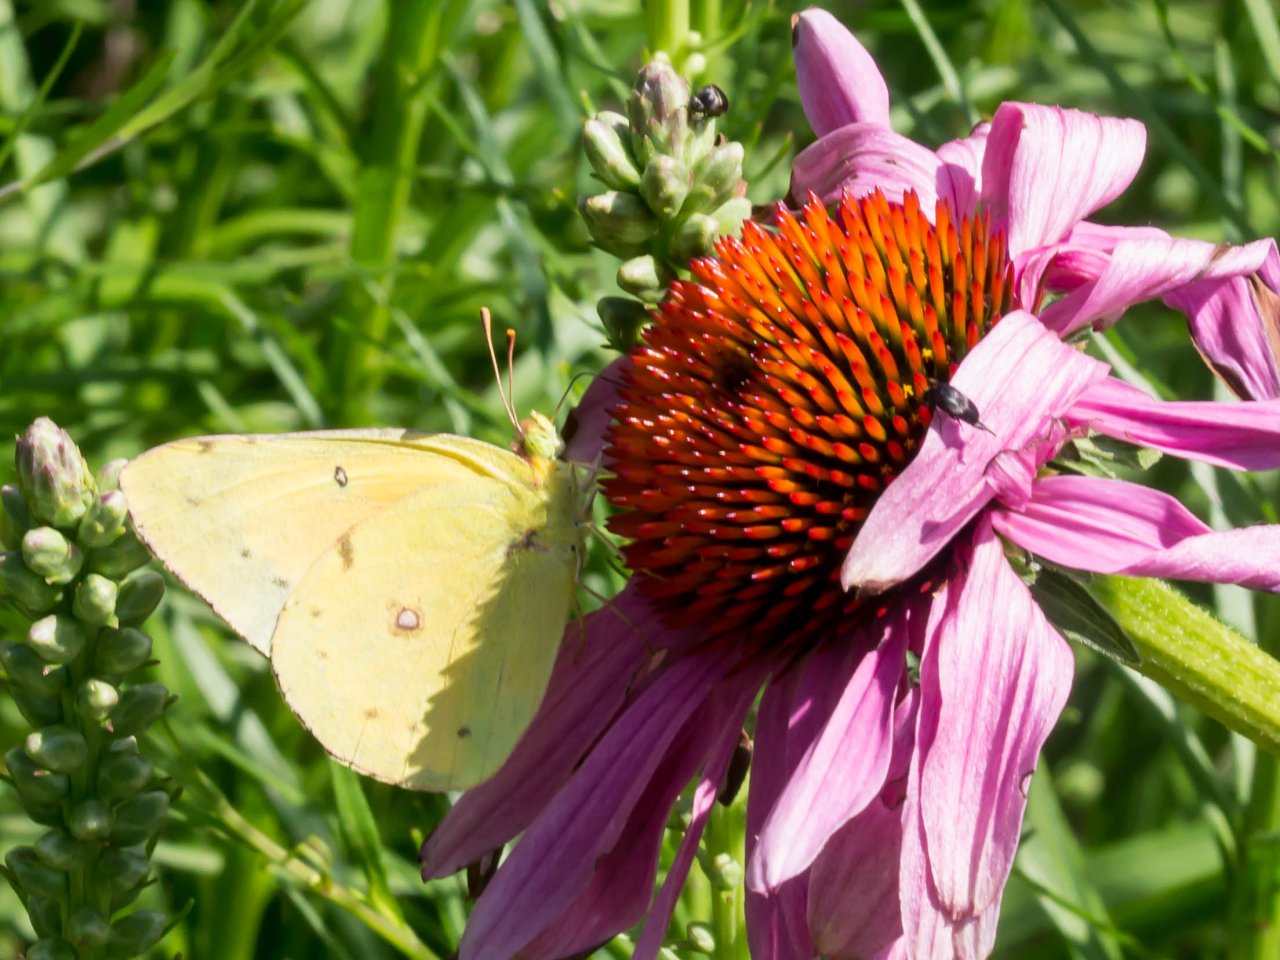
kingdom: Animalia
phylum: Arthropoda
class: Insecta
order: Lepidoptera
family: Pieridae
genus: Colias
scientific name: Colias eurytheme
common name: Orange Sulphur
